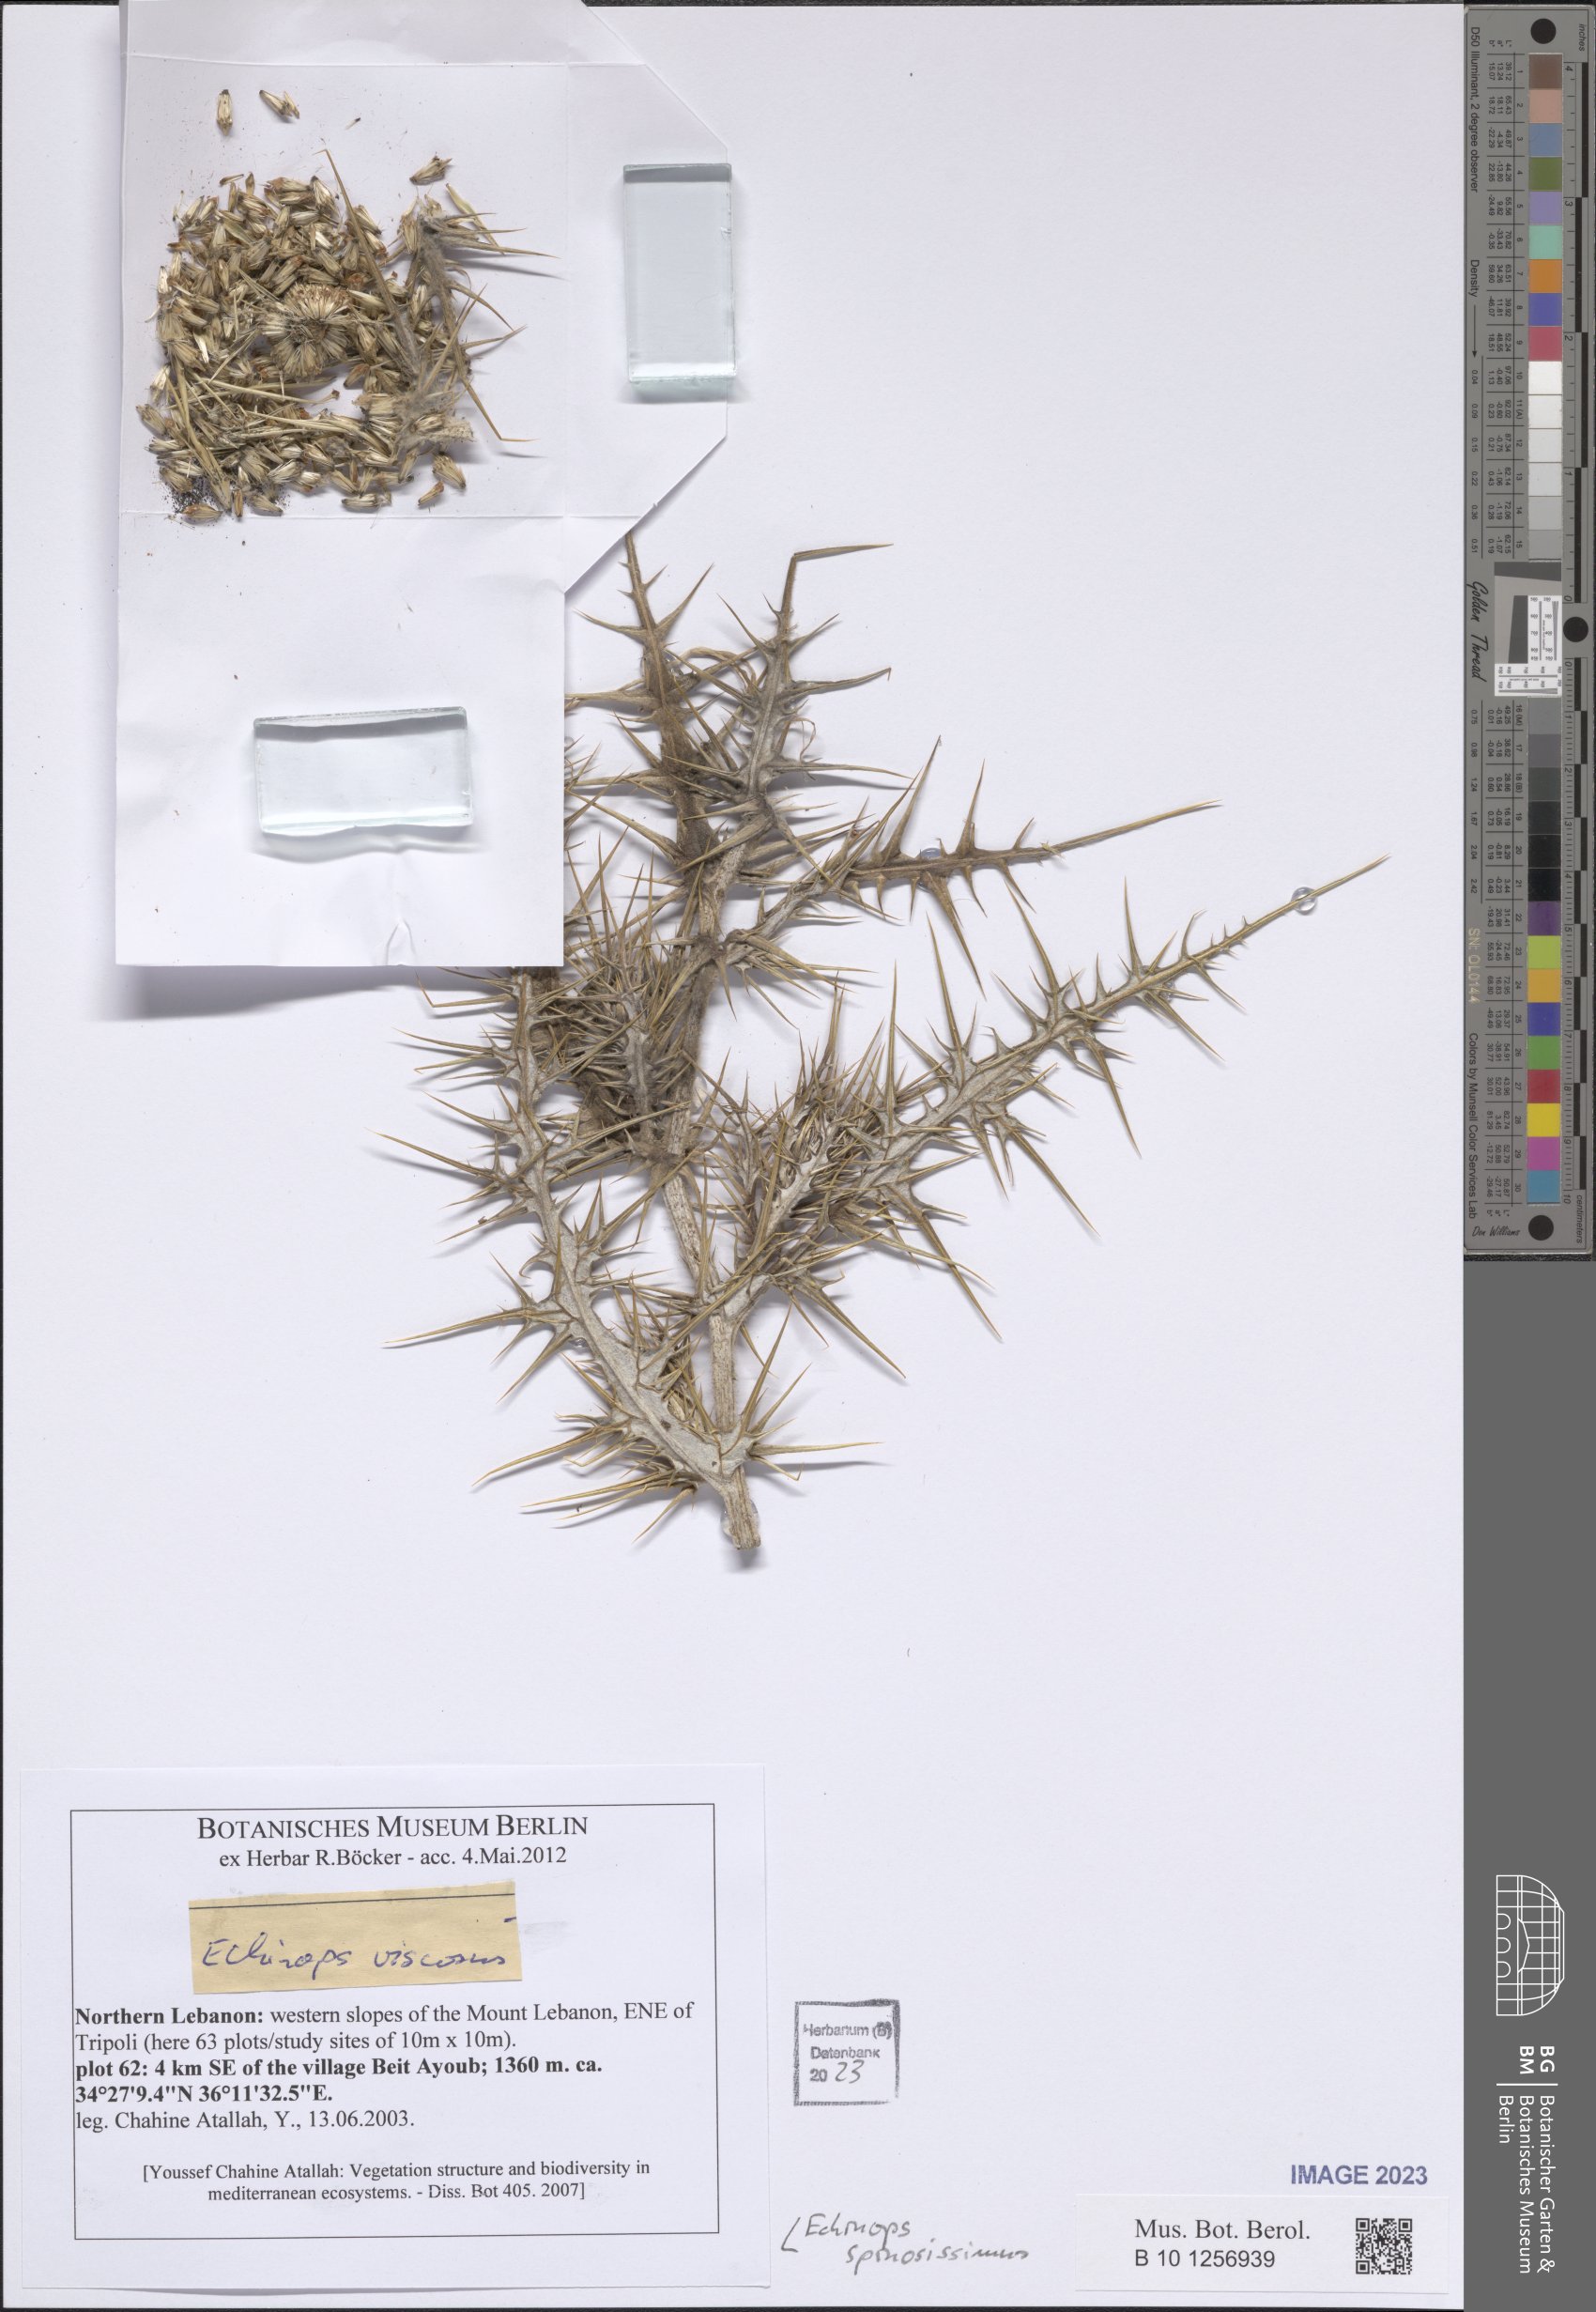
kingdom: Plantae
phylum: Tracheophyta
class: Magnoliopsida
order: Asterales
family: Asteraceae
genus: Echinops
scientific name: Echinops spinosissimus
